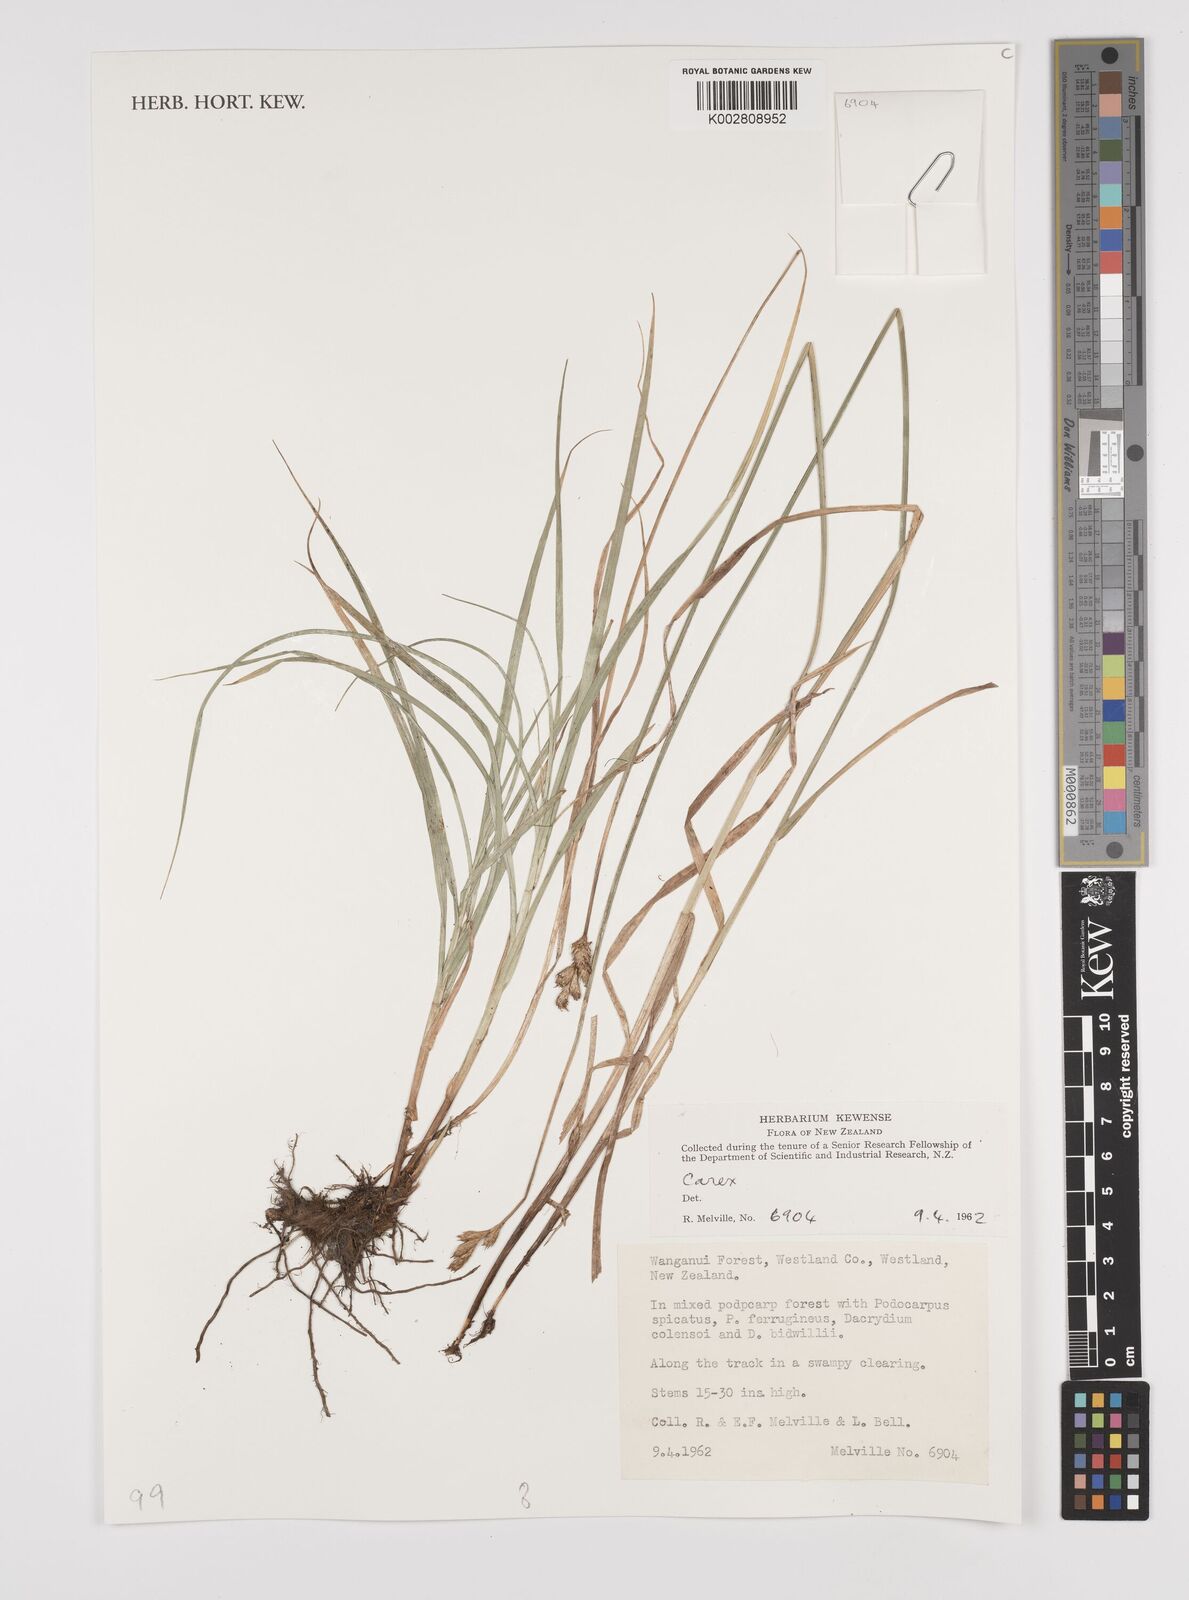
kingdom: Plantae
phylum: Tracheophyta
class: Liliopsida
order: Poales
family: Cyperaceae
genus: Carex
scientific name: Carex
